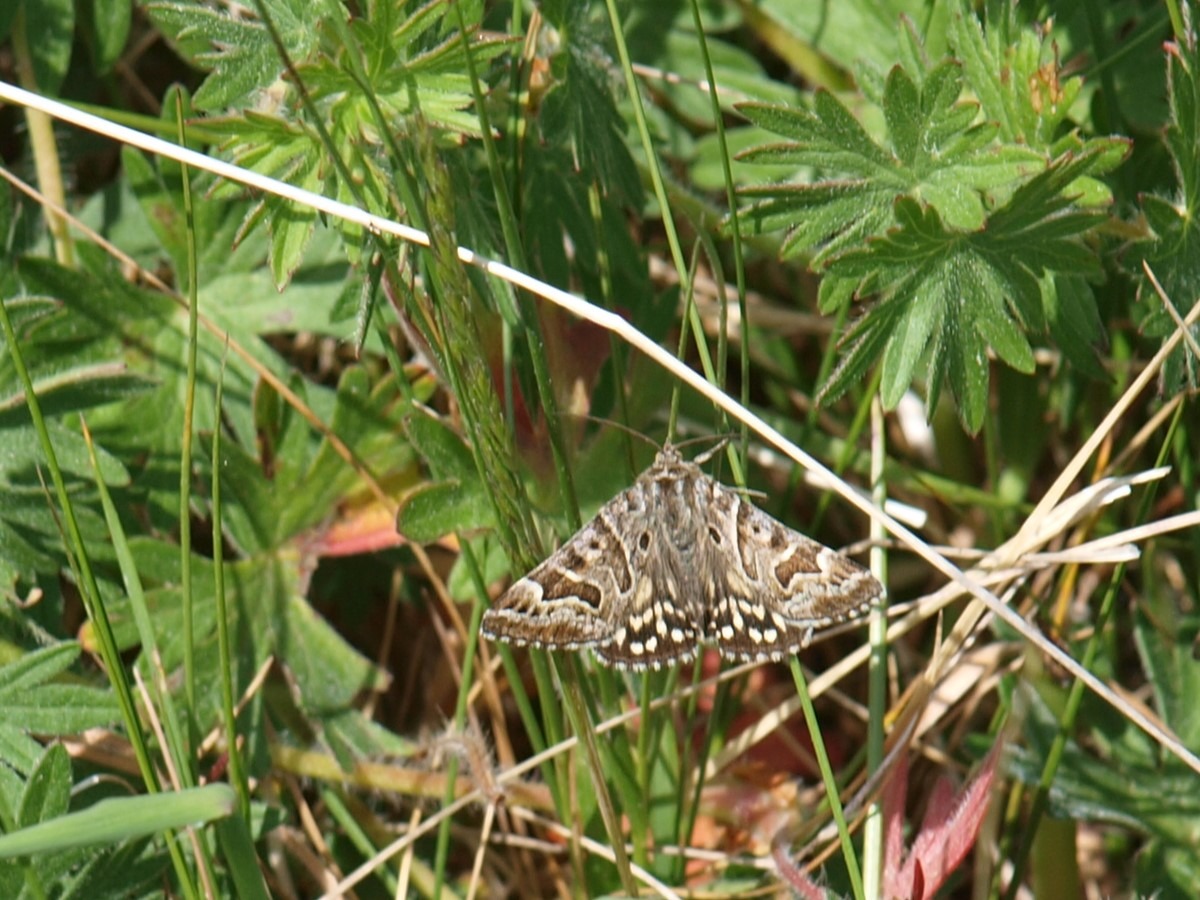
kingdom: Animalia
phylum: Arthropoda
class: Insecta
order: Lepidoptera
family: Erebidae
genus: Callistege
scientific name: Callistege mi
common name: Marmoreret kløverugle
